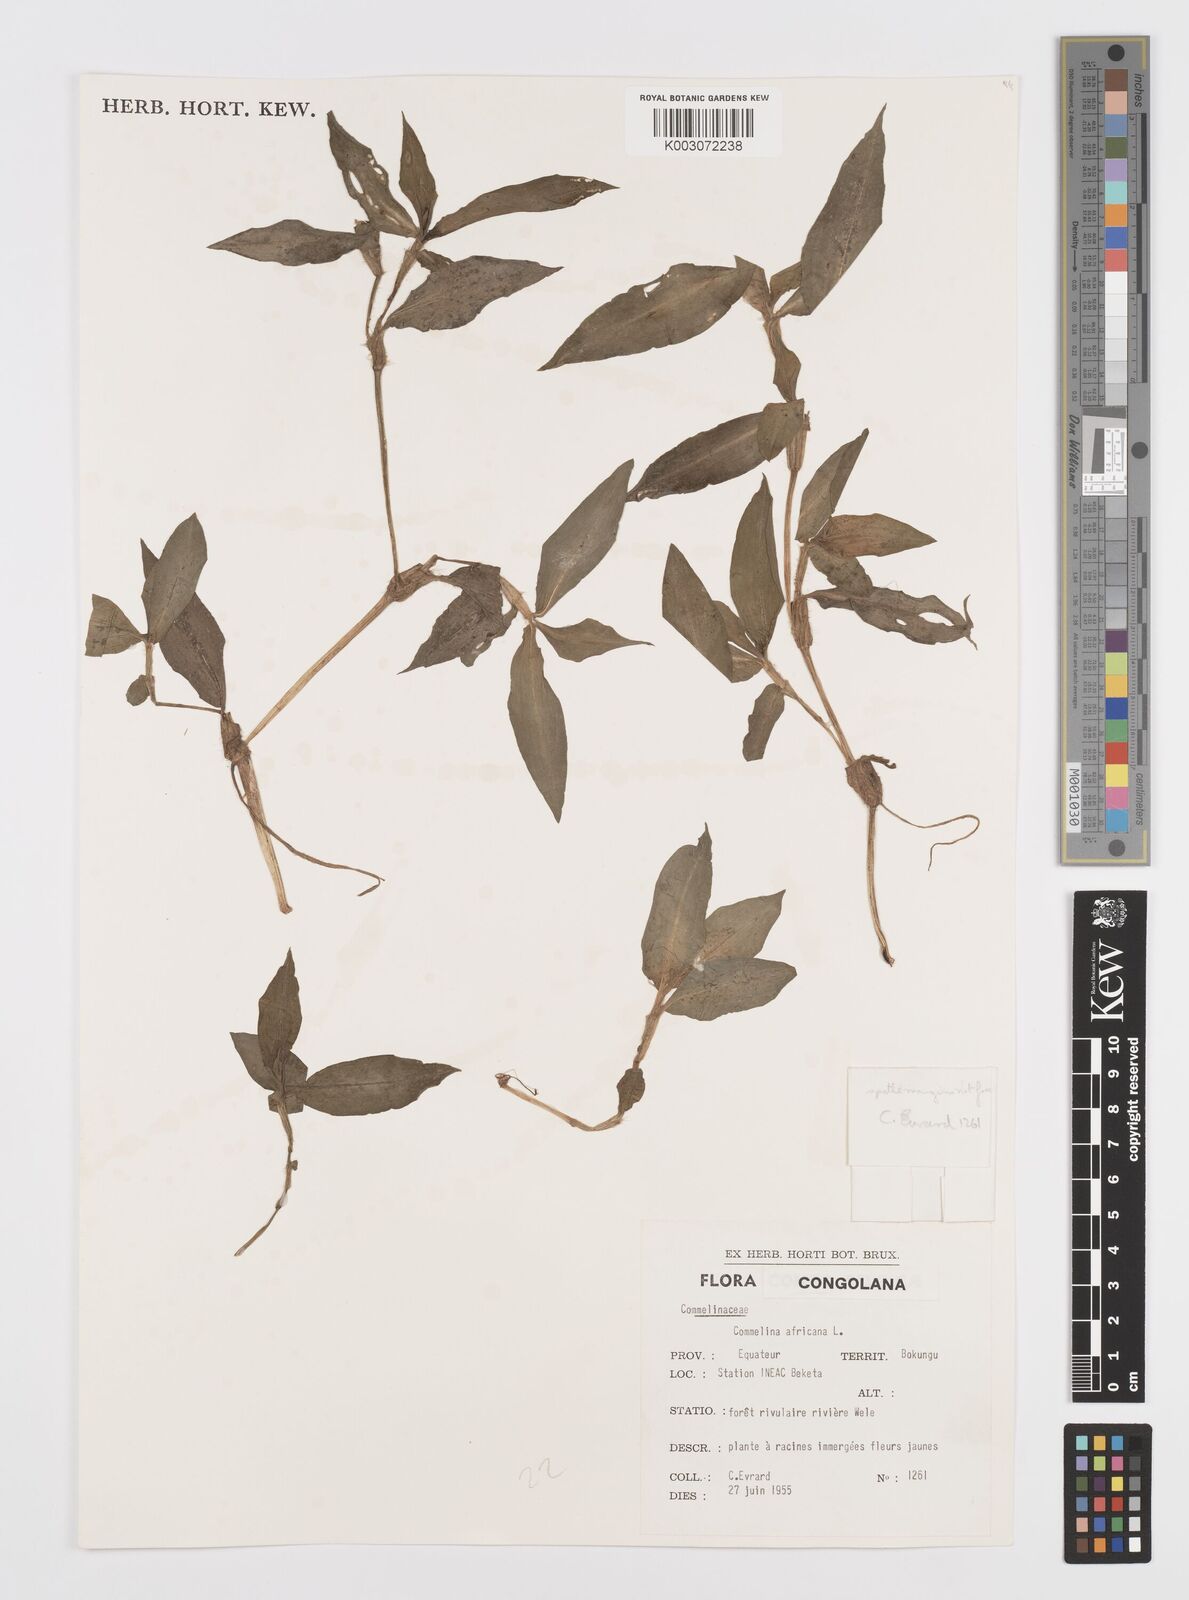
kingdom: Plantae
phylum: Tracheophyta
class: Liliopsida
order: Commelinales
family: Commelinaceae
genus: Commelina
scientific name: Commelina africana
